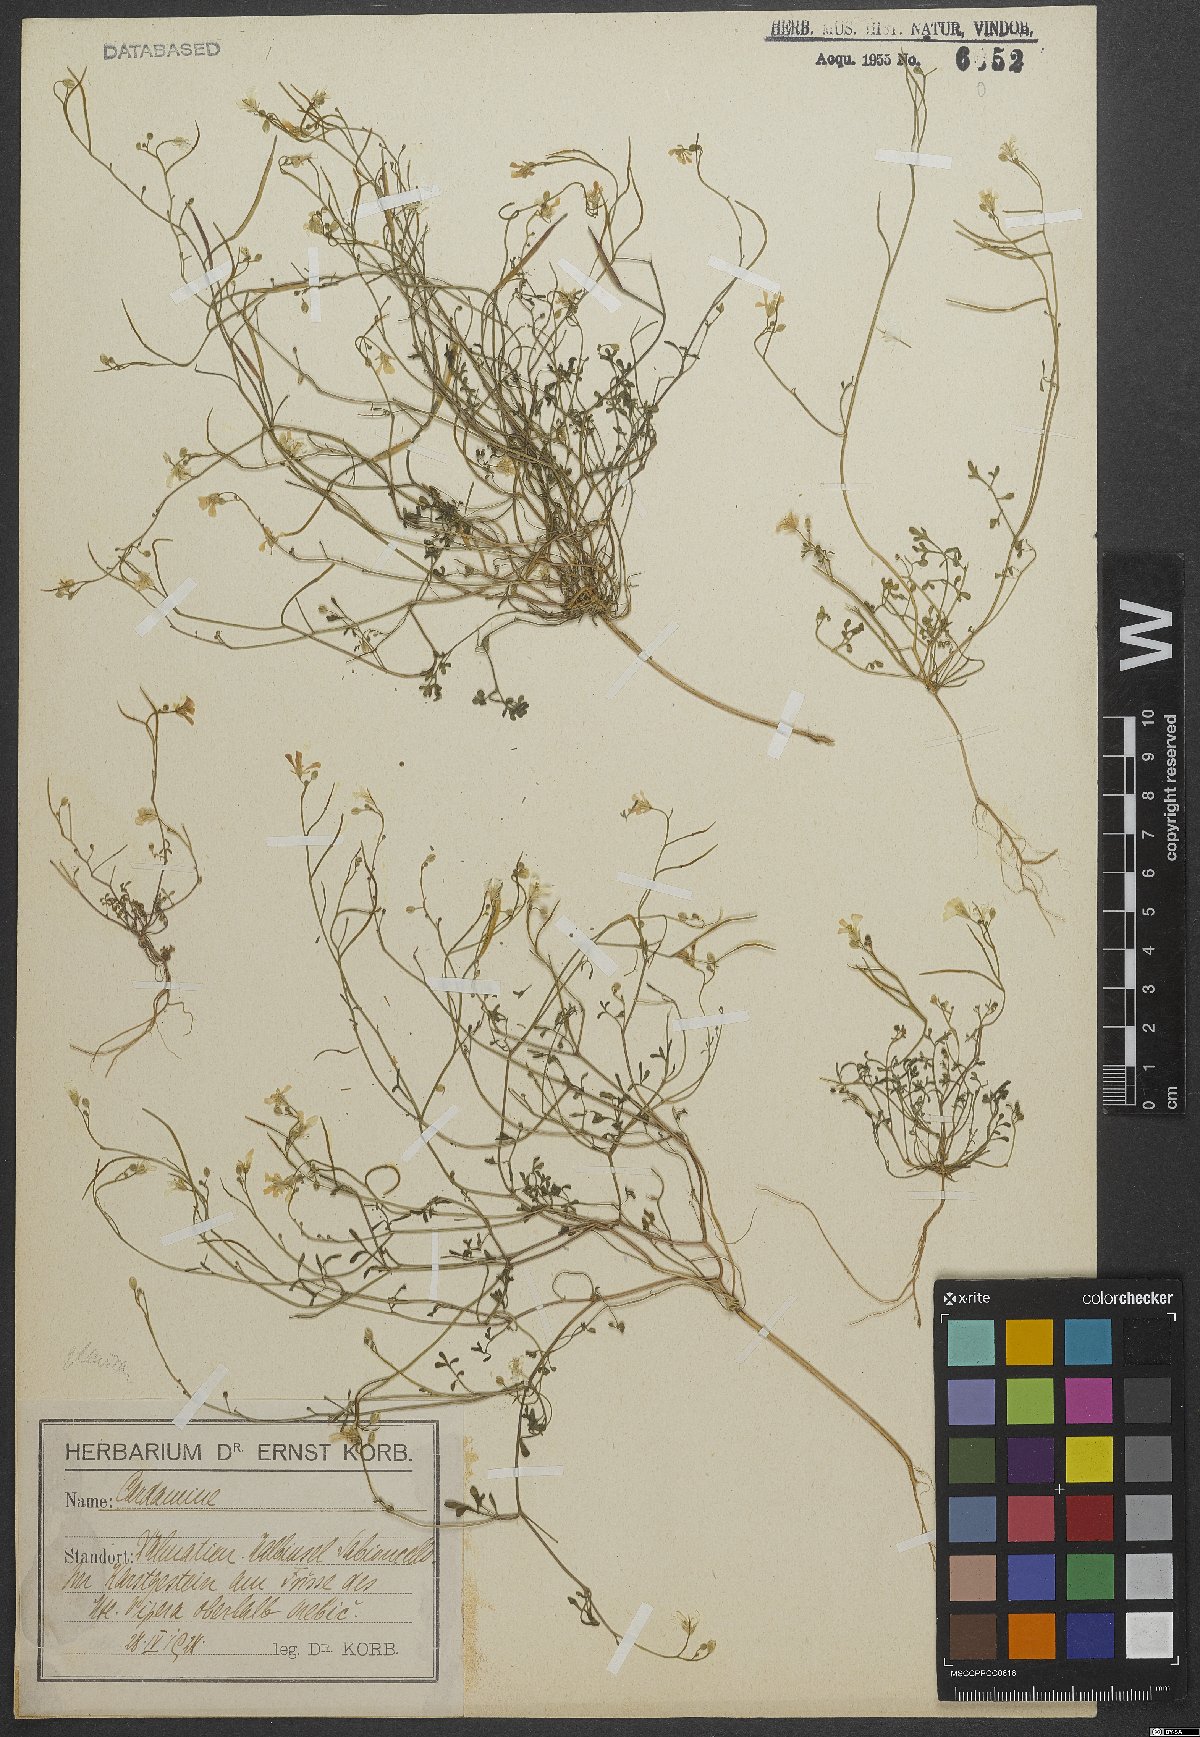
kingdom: Plantae
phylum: Tracheophyta
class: Magnoliopsida
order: Brassicales
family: Brassicaceae
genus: Cardamine
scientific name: Cardamine glauca
